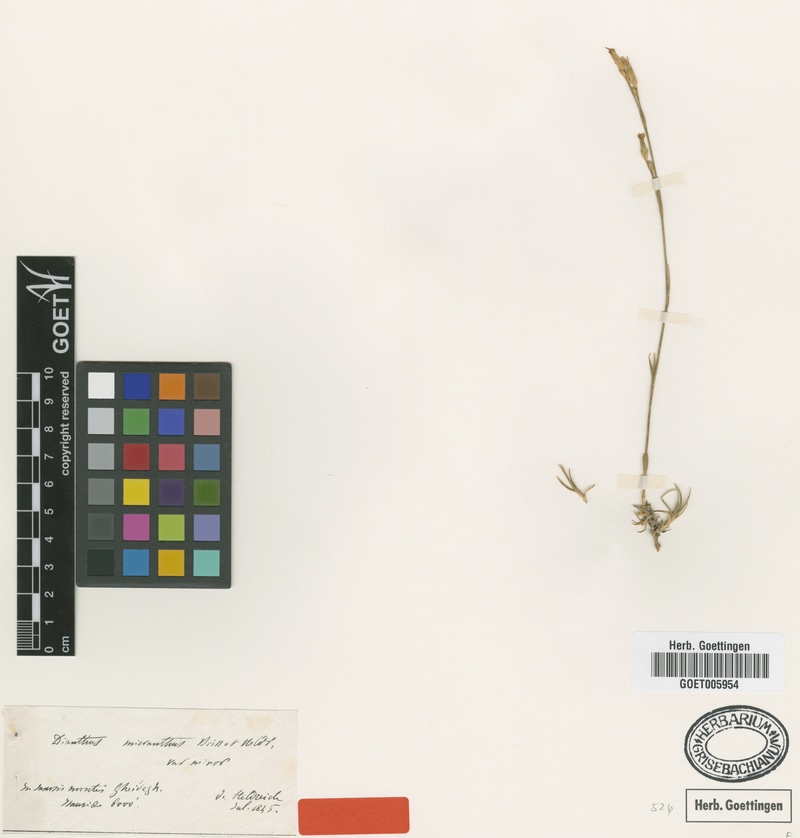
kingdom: Plantae
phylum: Tracheophyta
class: Magnoliopsida
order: Caryophyllales
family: Caryophyllaceae
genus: Dianthus
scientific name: Dianthus micranthus
